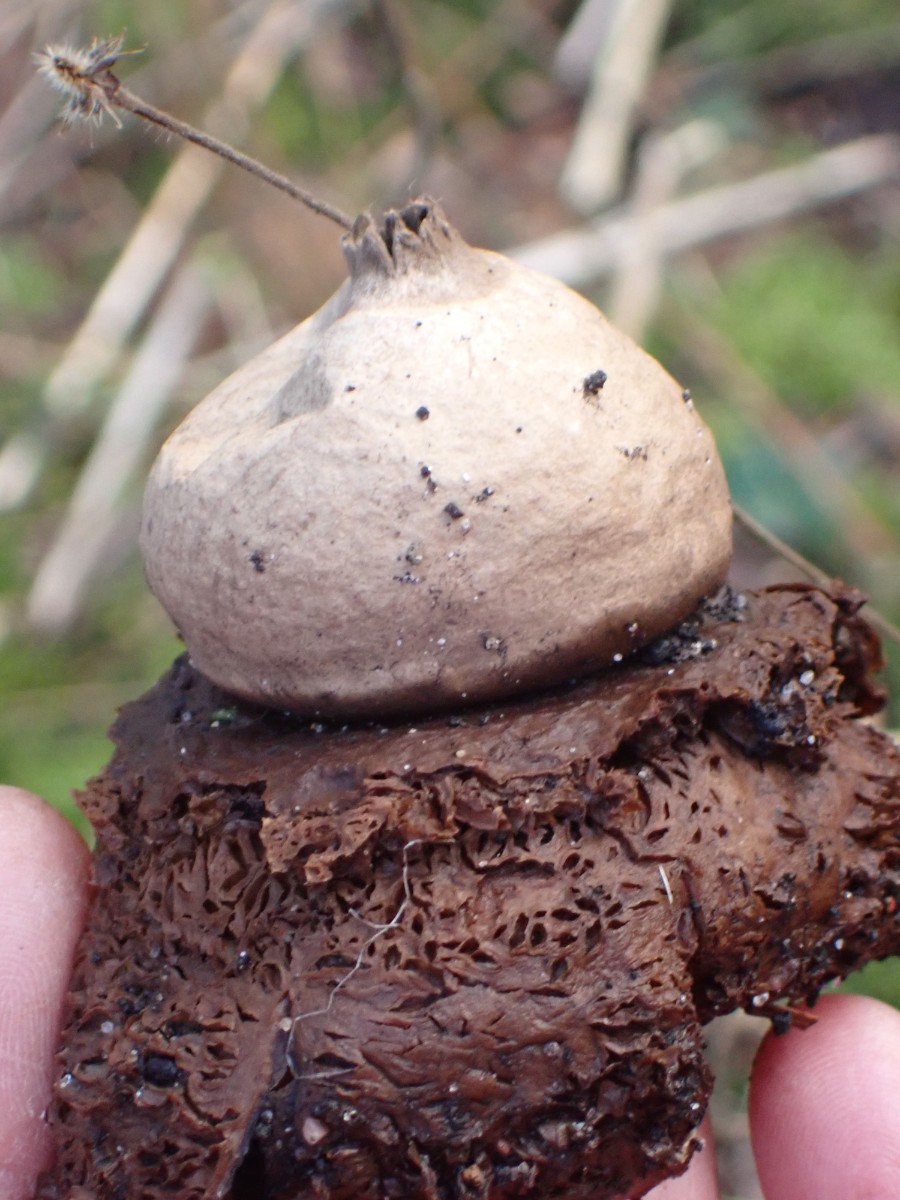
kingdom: Fungi
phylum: Basidiomycota
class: Agaricomycetes
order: Geastrales
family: Geastraceae
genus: Geastrum
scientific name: Geastrum michelianum
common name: kødet stjernebold
